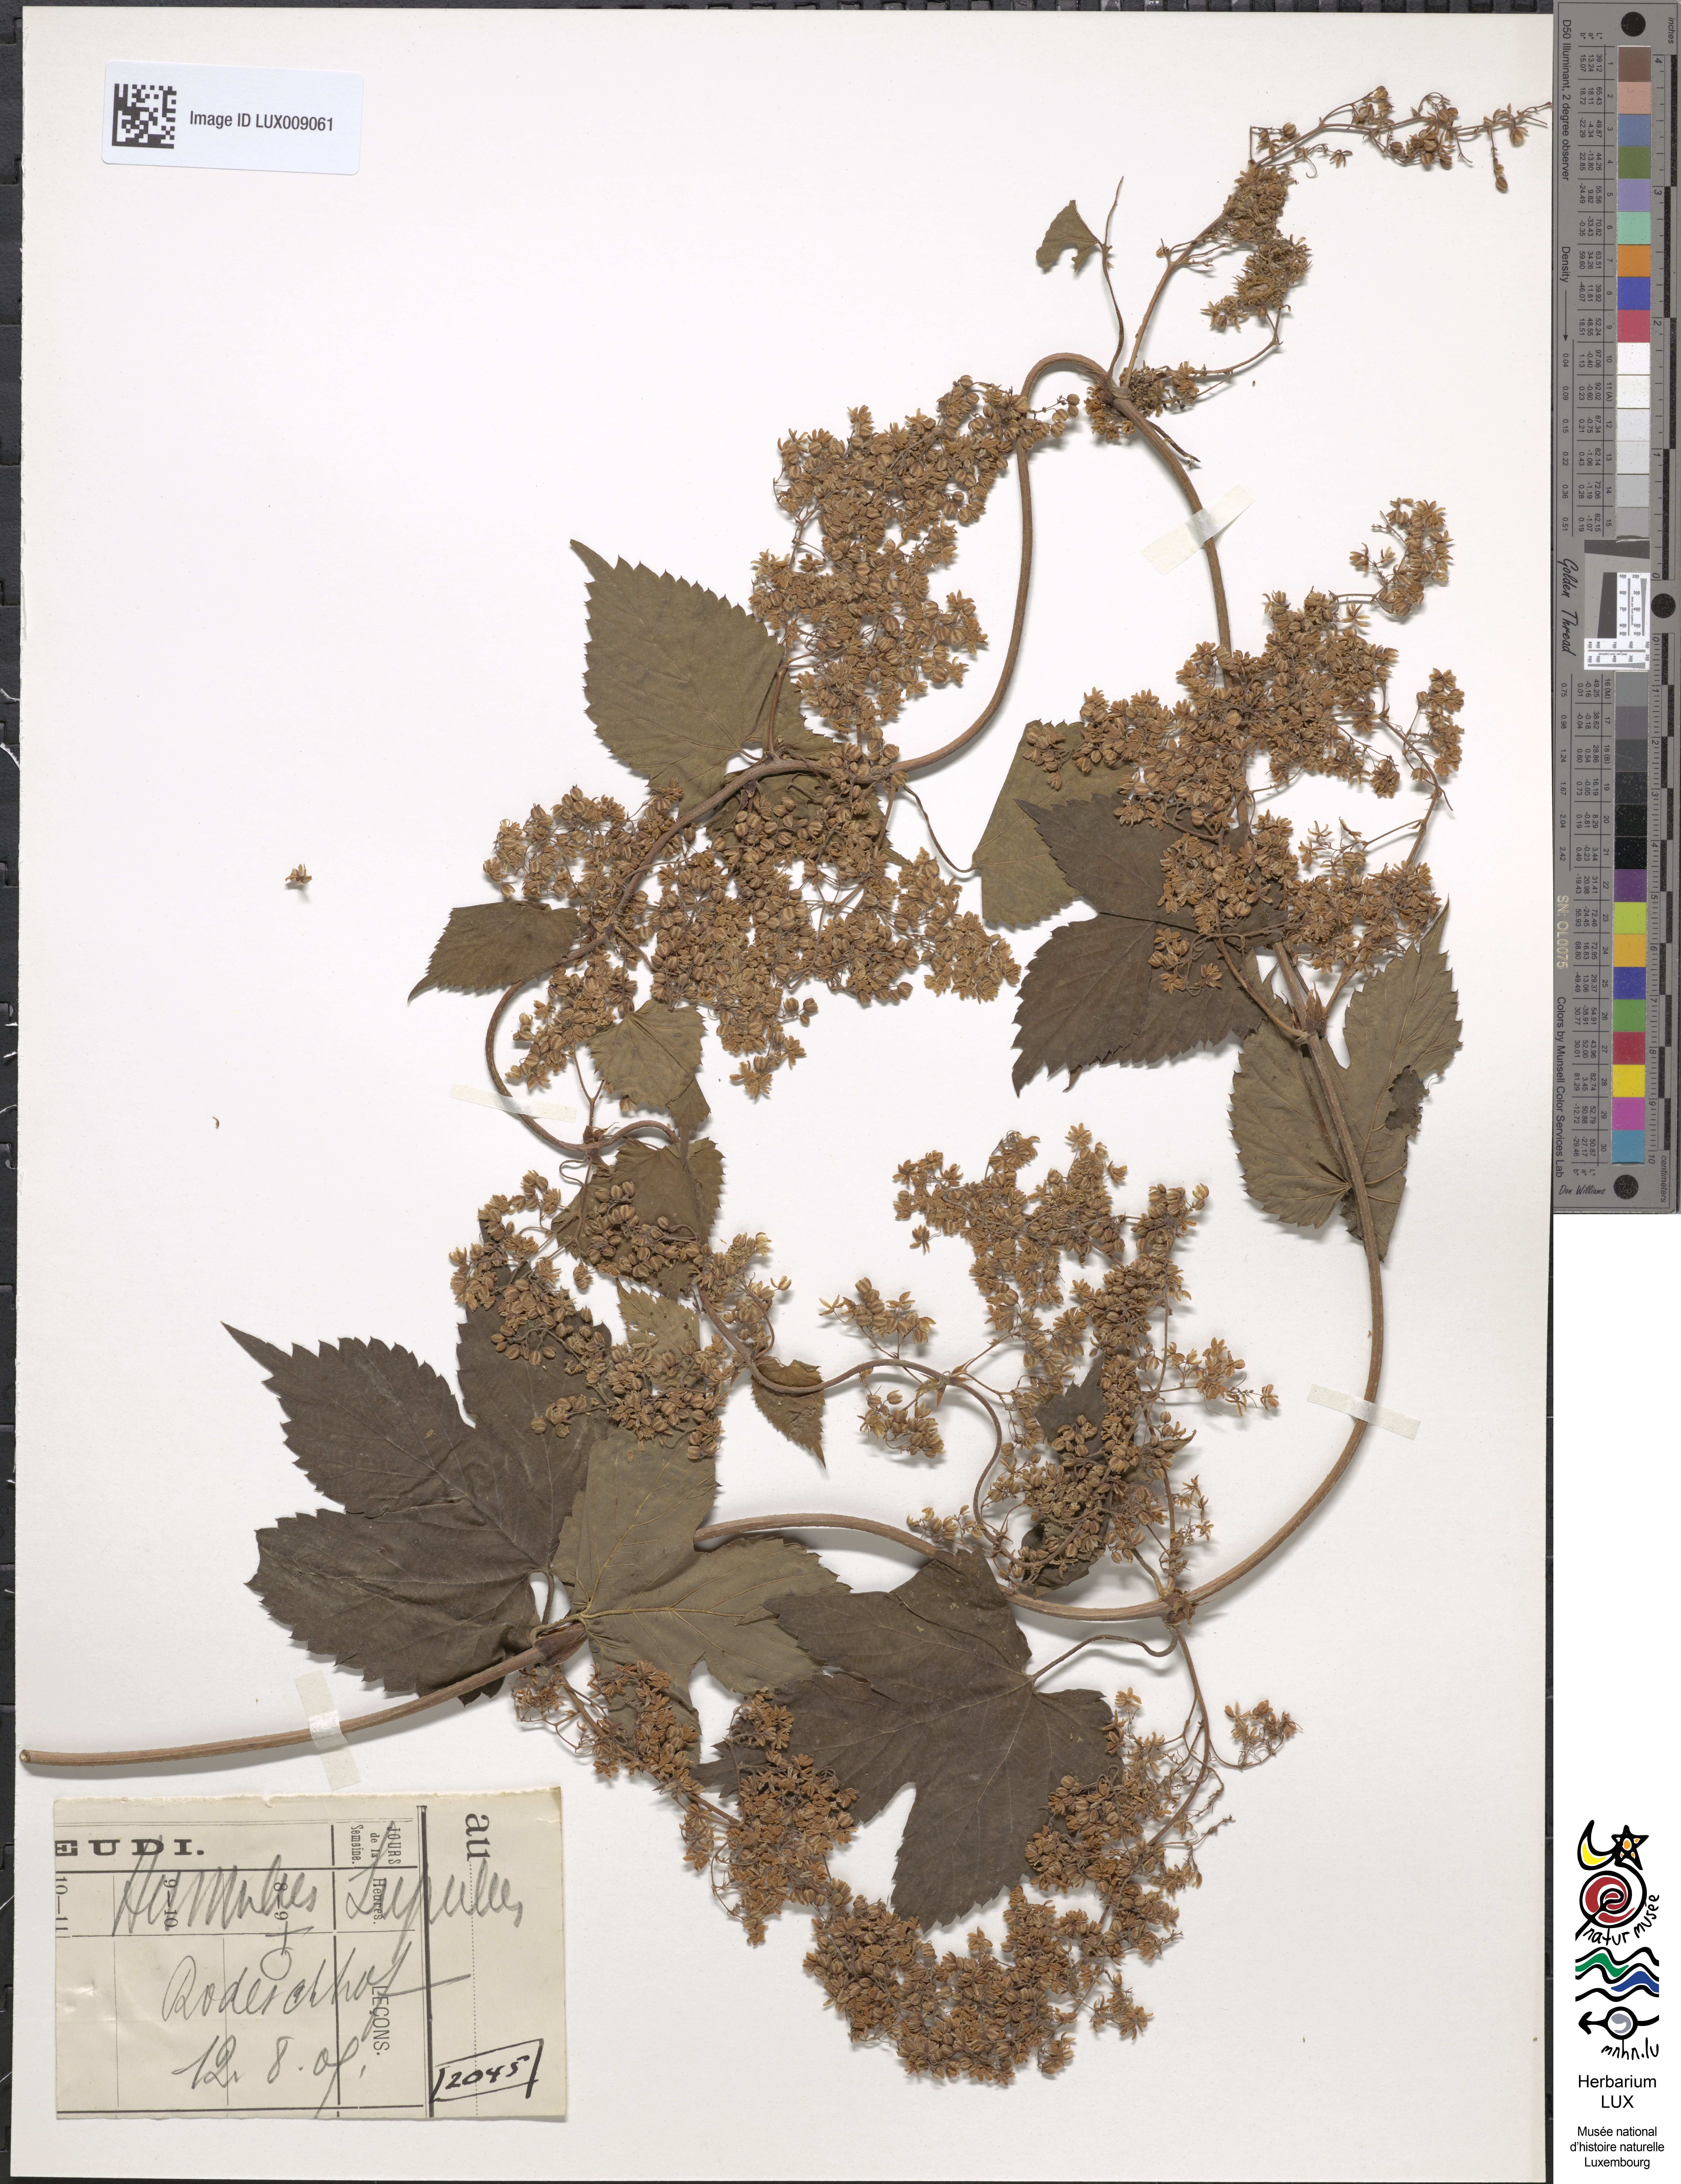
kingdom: Plantae
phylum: Tracheophyta
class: Magnoliopsida
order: Rosales
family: Cannabaceae
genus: Humulus
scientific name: Humulus lupulus
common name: Hop
